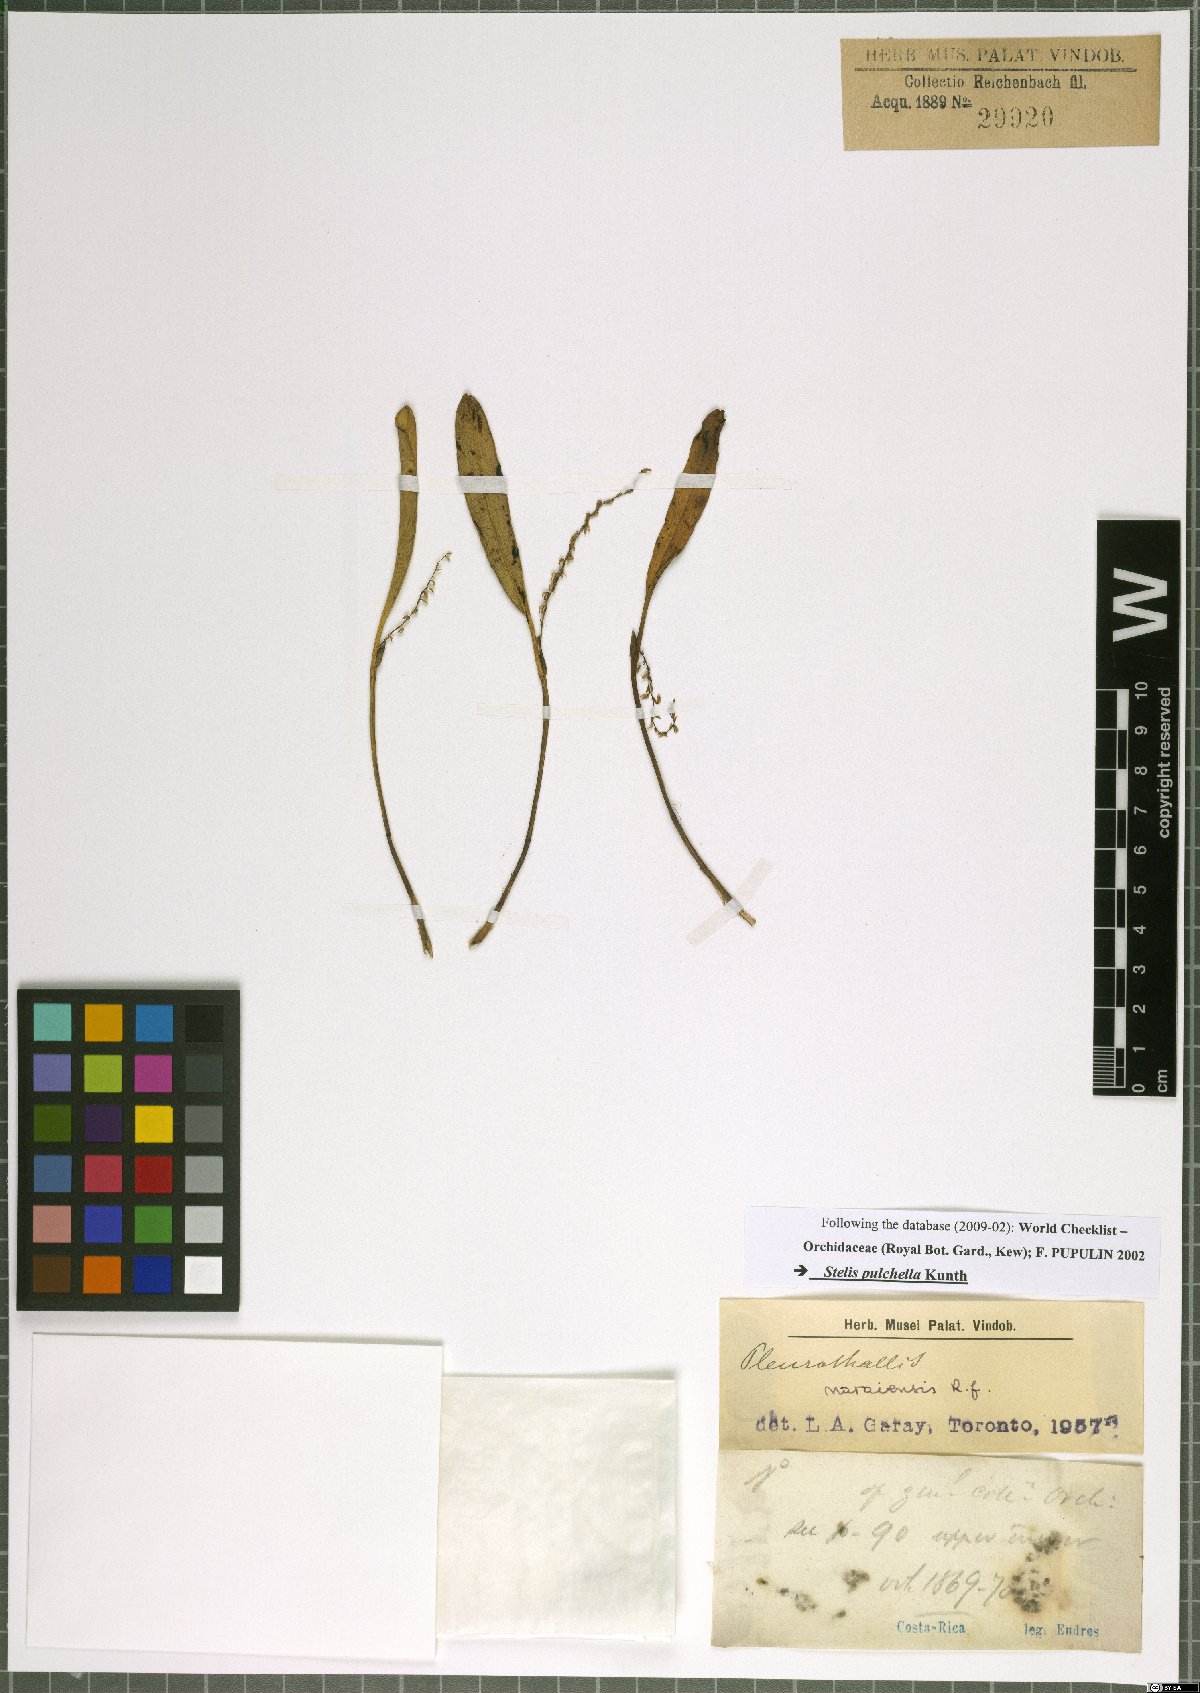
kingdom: Plantae
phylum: Tracheophyta
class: Liliopsida
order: Asparagales
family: Orchidaceae
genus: Stelis
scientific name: Stelis pulchella
